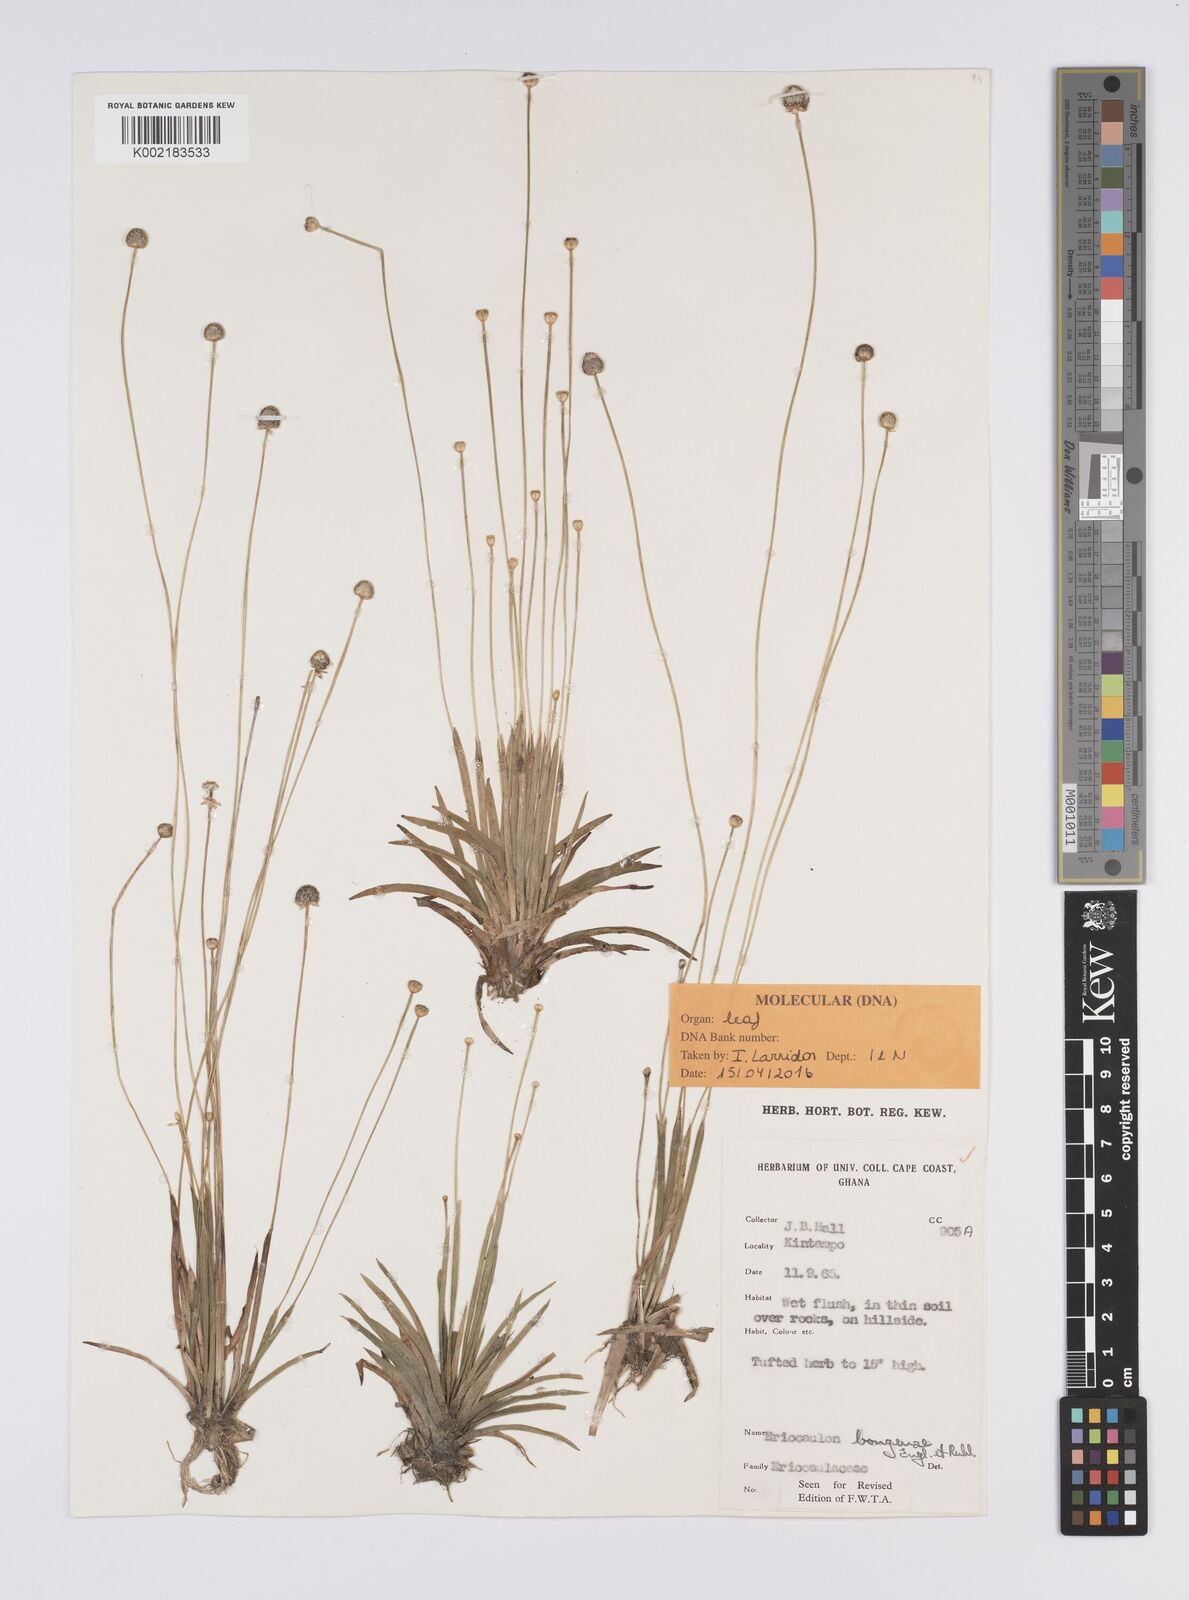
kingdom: Plantae
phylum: Tracheophyta
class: Liliopsida
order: Poales
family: Eriocaulaceae
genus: Eriocaulon
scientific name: Eriocaulon bongense
